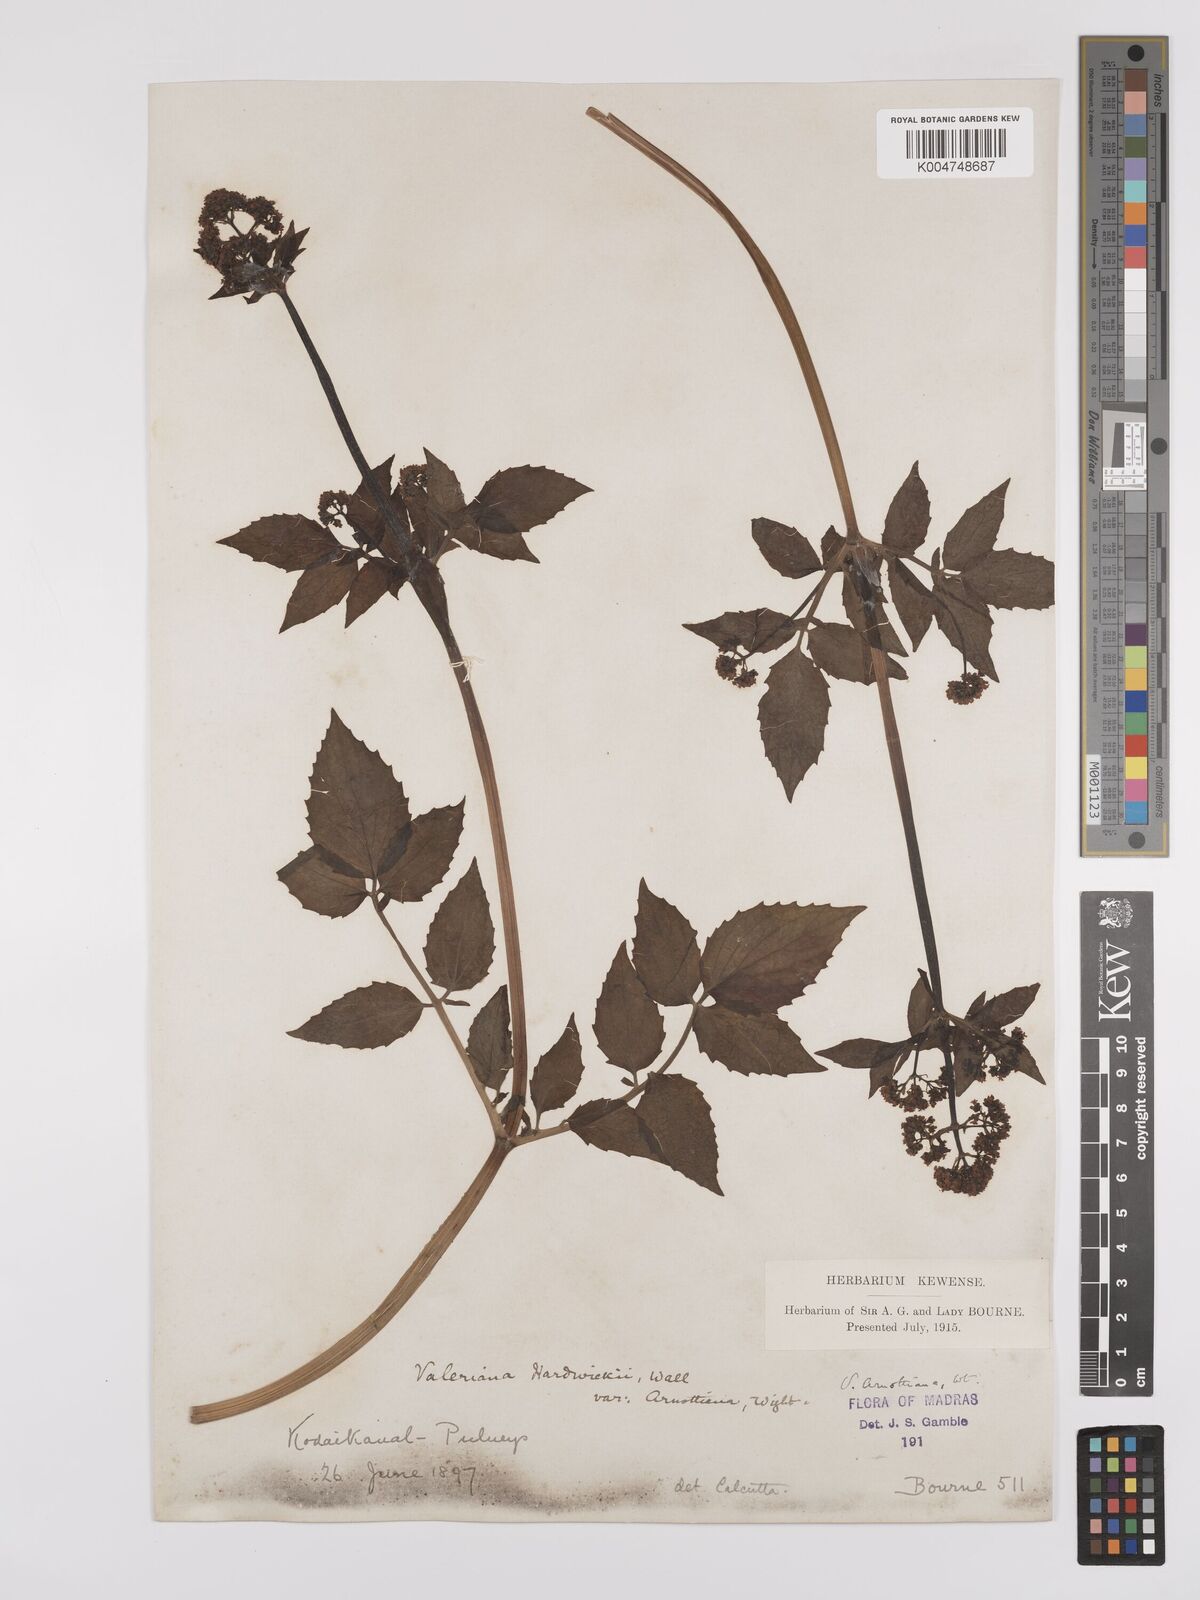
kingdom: Plantae
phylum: Tracheophyta
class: Magnoliopsida
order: Dipsacales
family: Caprifoliaceae
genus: Valeriana
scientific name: Valeriana
